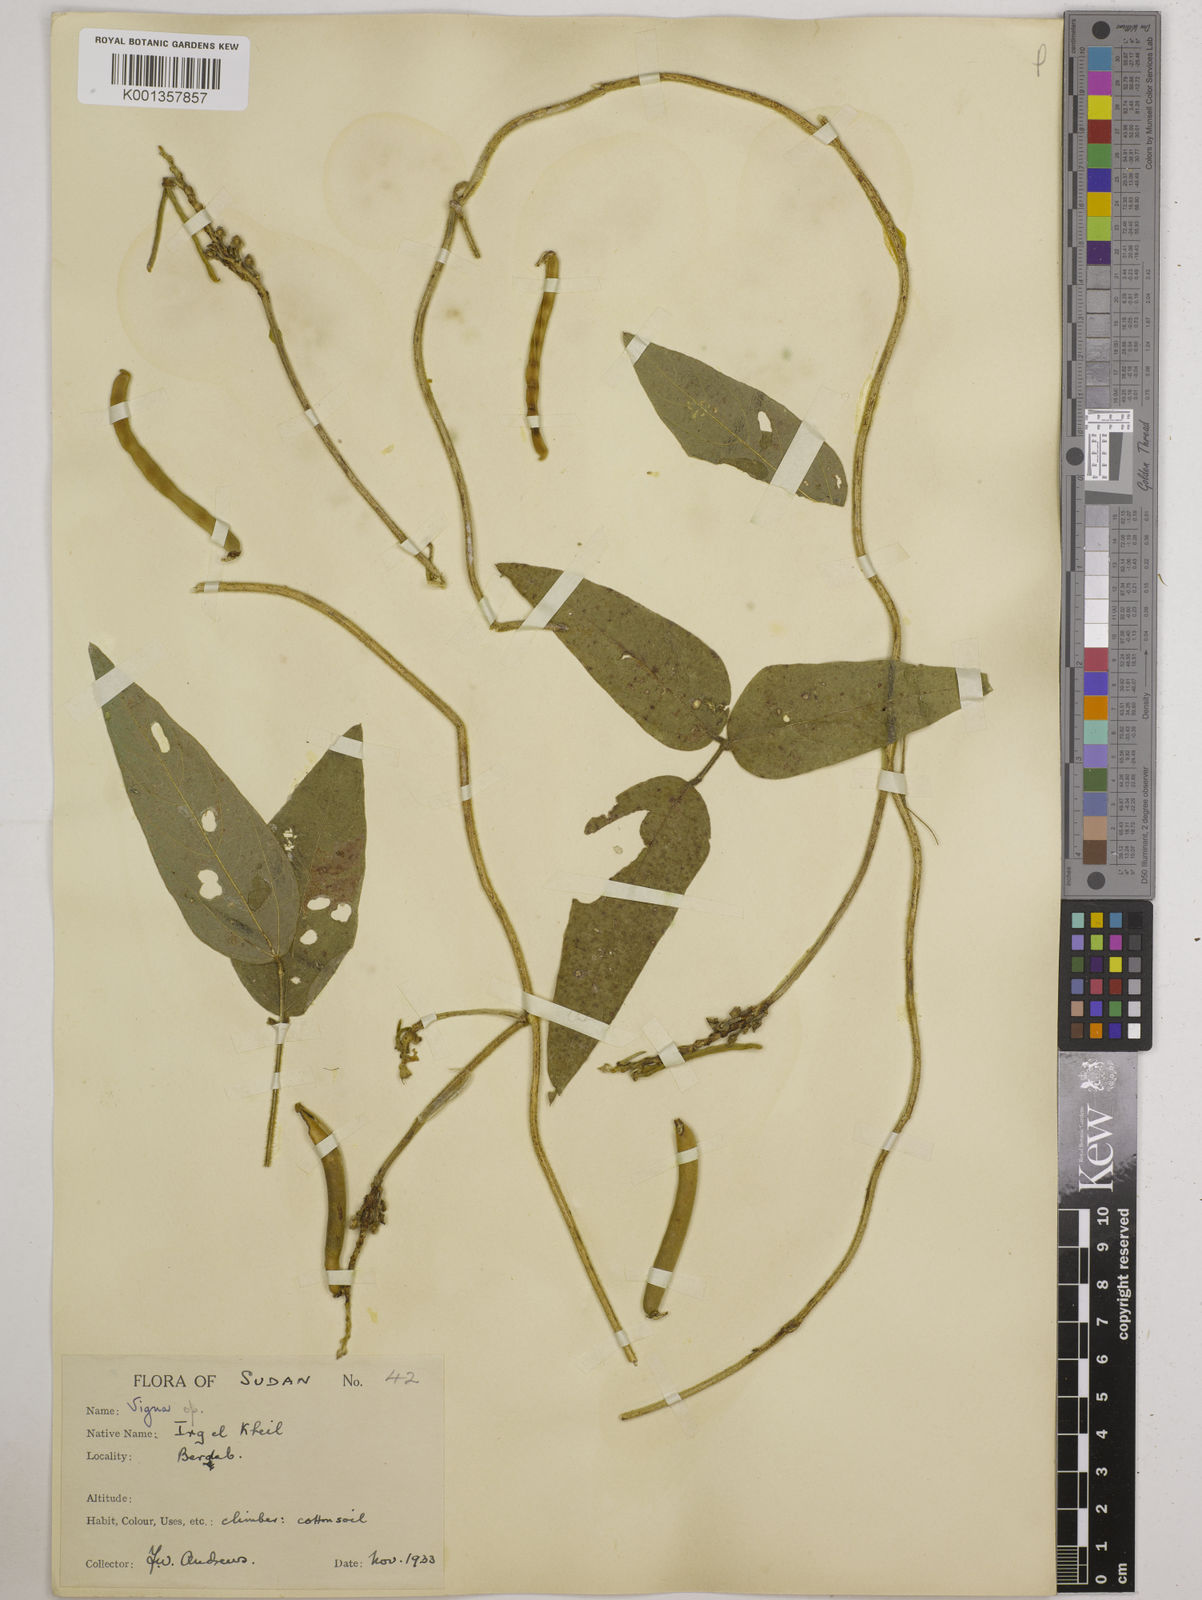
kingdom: Plantae
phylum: Tracheophyta
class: Magnoliopsida
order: Fabales
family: Fabaceae
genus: Vigna
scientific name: Vigna ambacensis
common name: Tsarkiyan zomo
